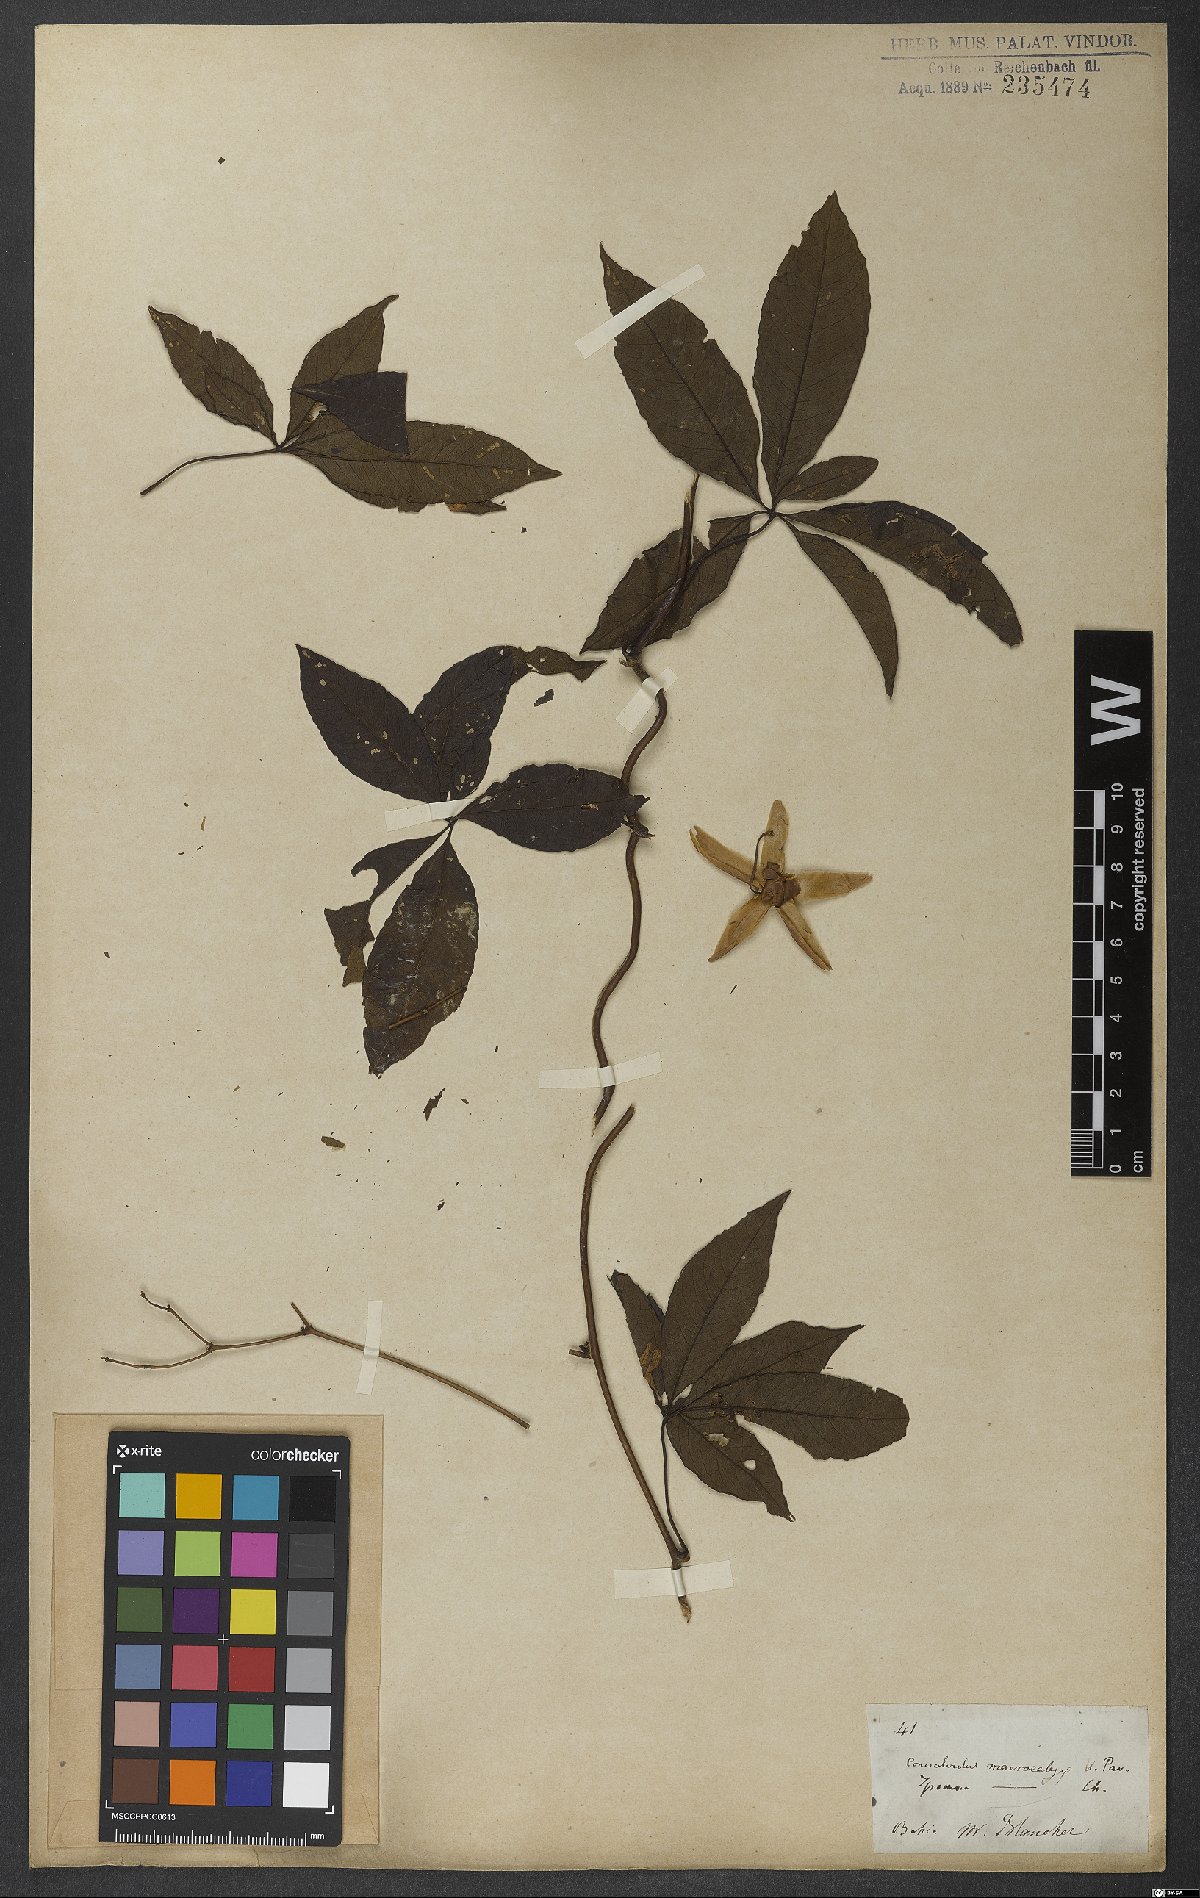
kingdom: Plantae
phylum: Tracheophyta
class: Magnoliopsida
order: Solanales
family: Convolvulaceae
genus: Distimake
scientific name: Distimake macrocalyx
